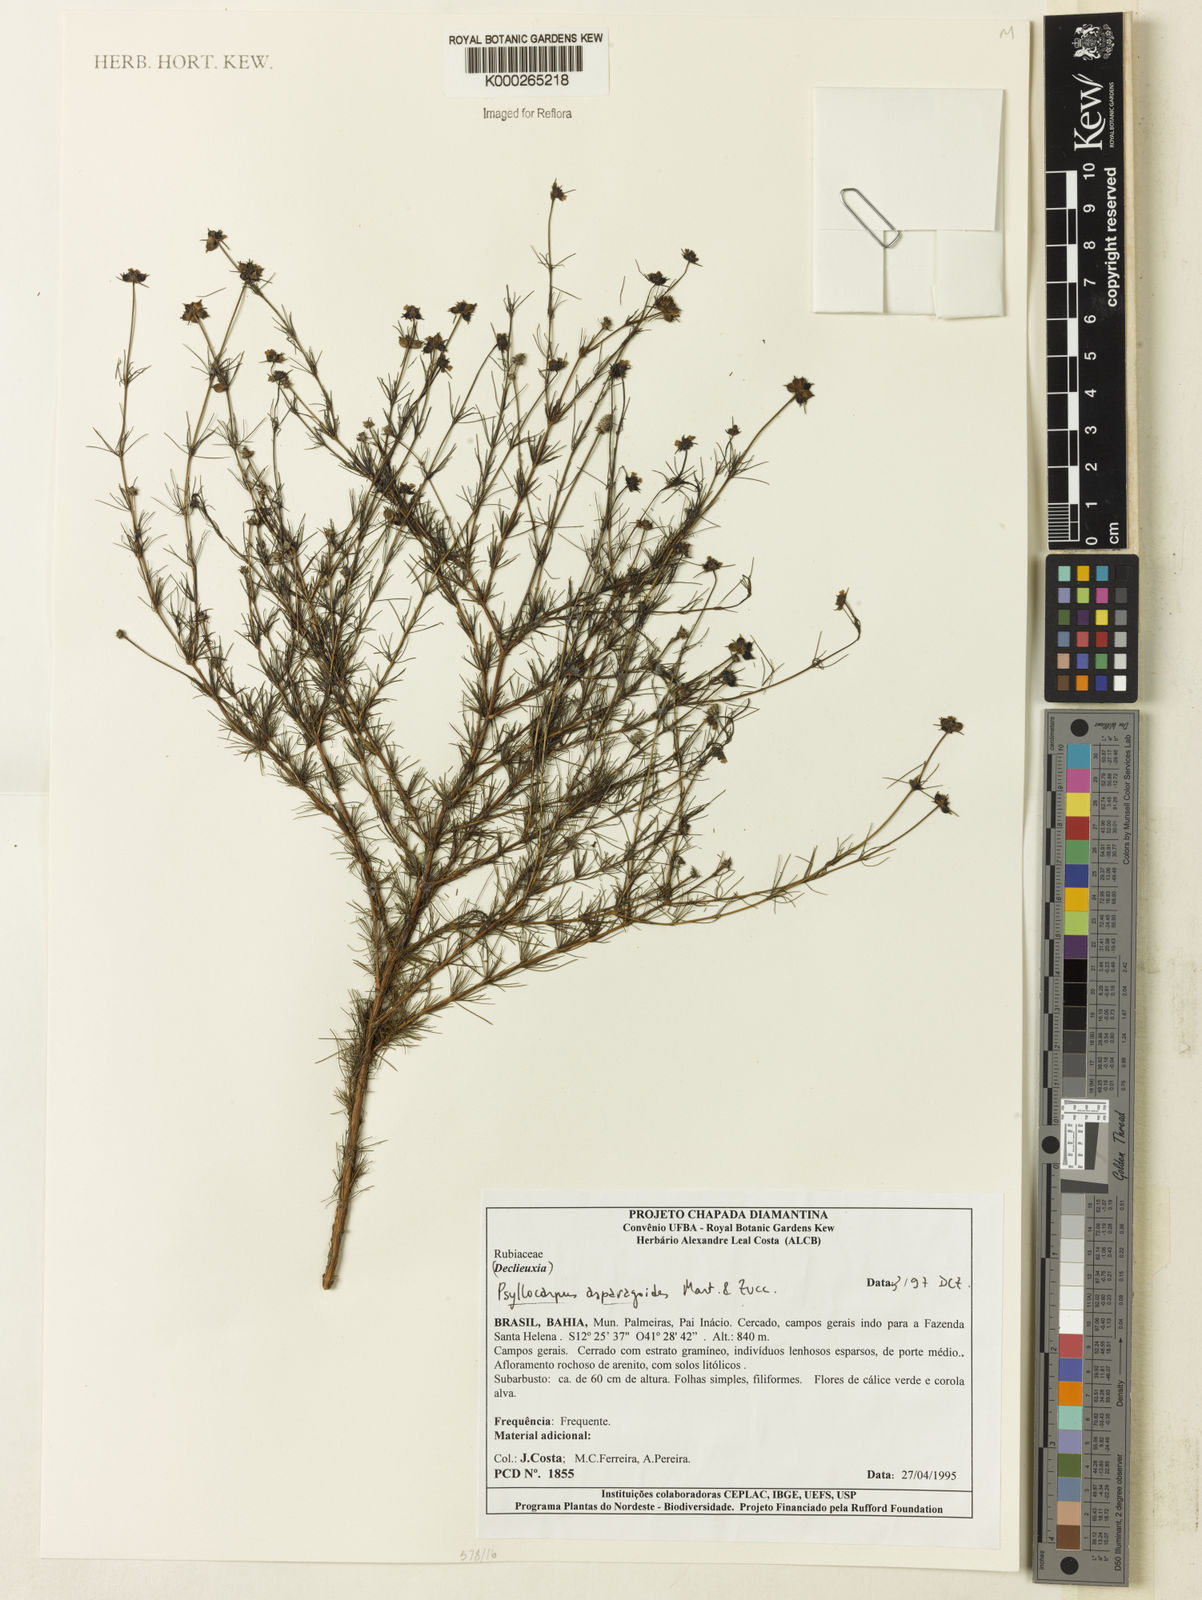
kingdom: Plantae
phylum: Tracheophyta
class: Magnoliopsida
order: Gentianales
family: Rubiaceae
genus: Psyllocarpus
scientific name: Psyllocarpus asparagoides
